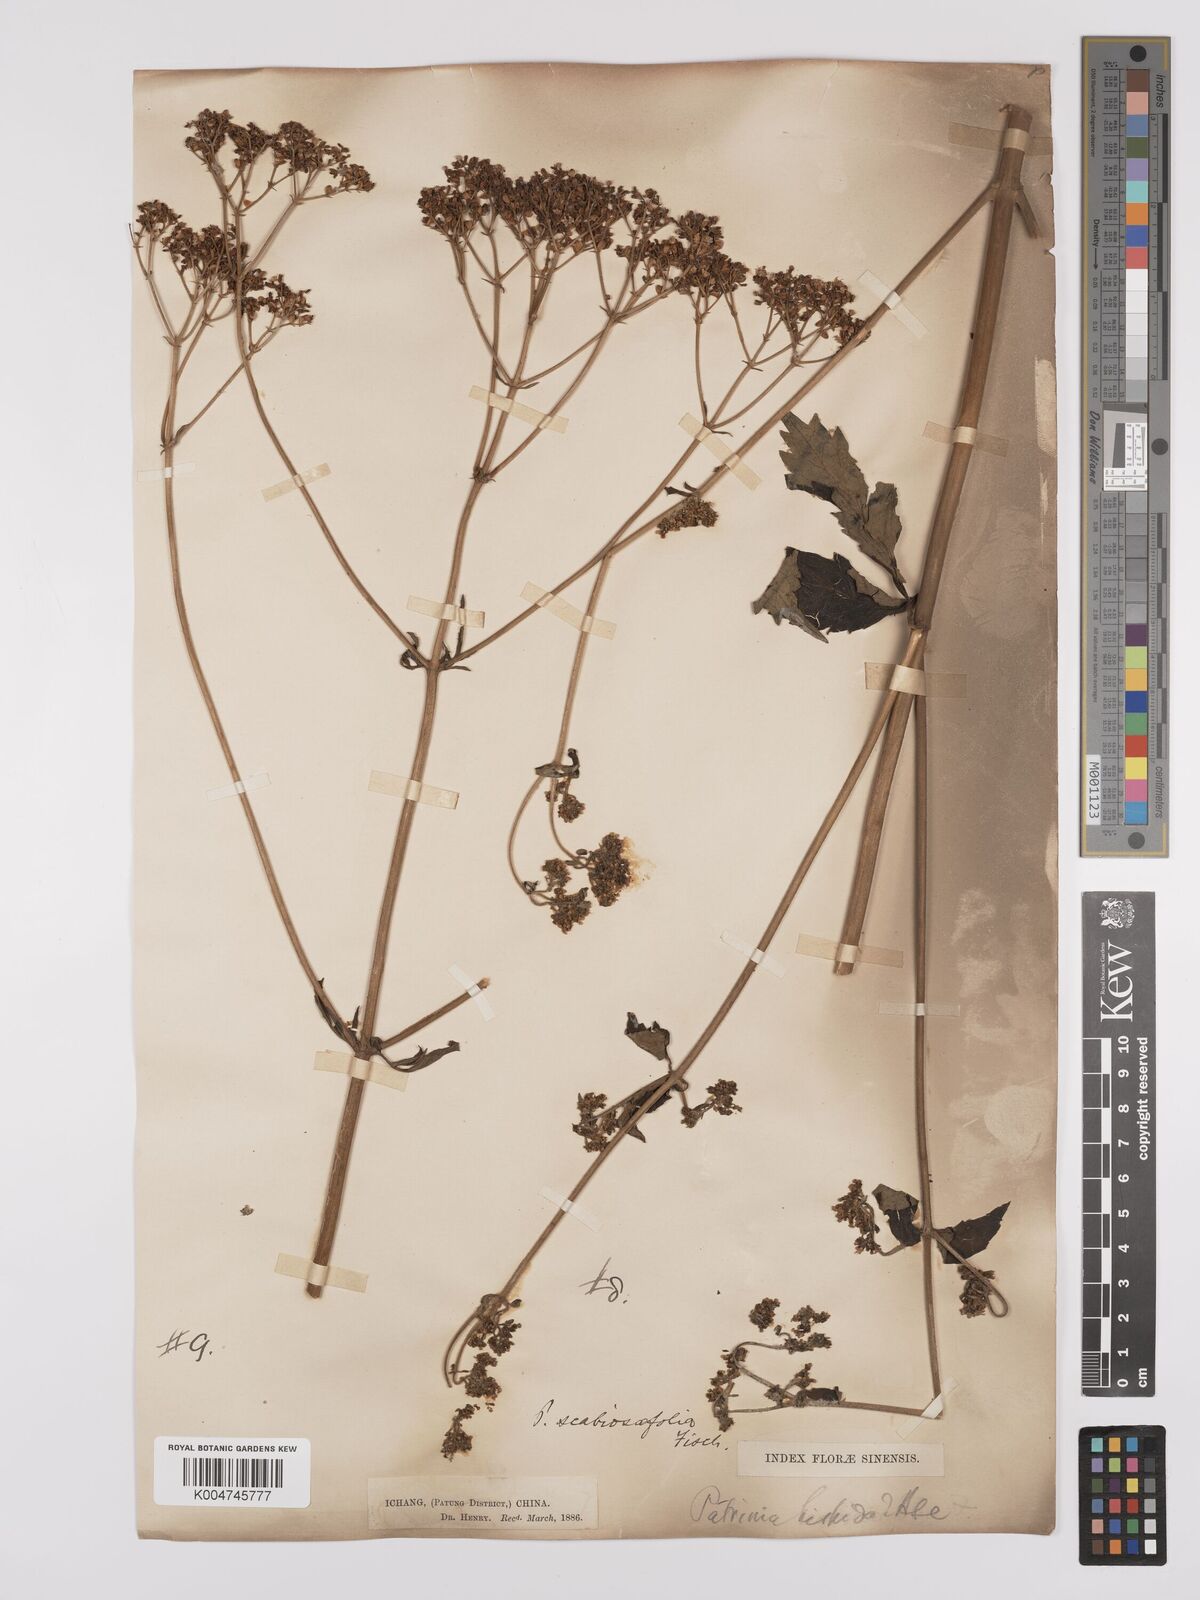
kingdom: Plantae
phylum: Tracheophyta
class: Magnoliopsida
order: Dipsacales
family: Caprifoliaceae
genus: Patrinia
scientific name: Patrinia
